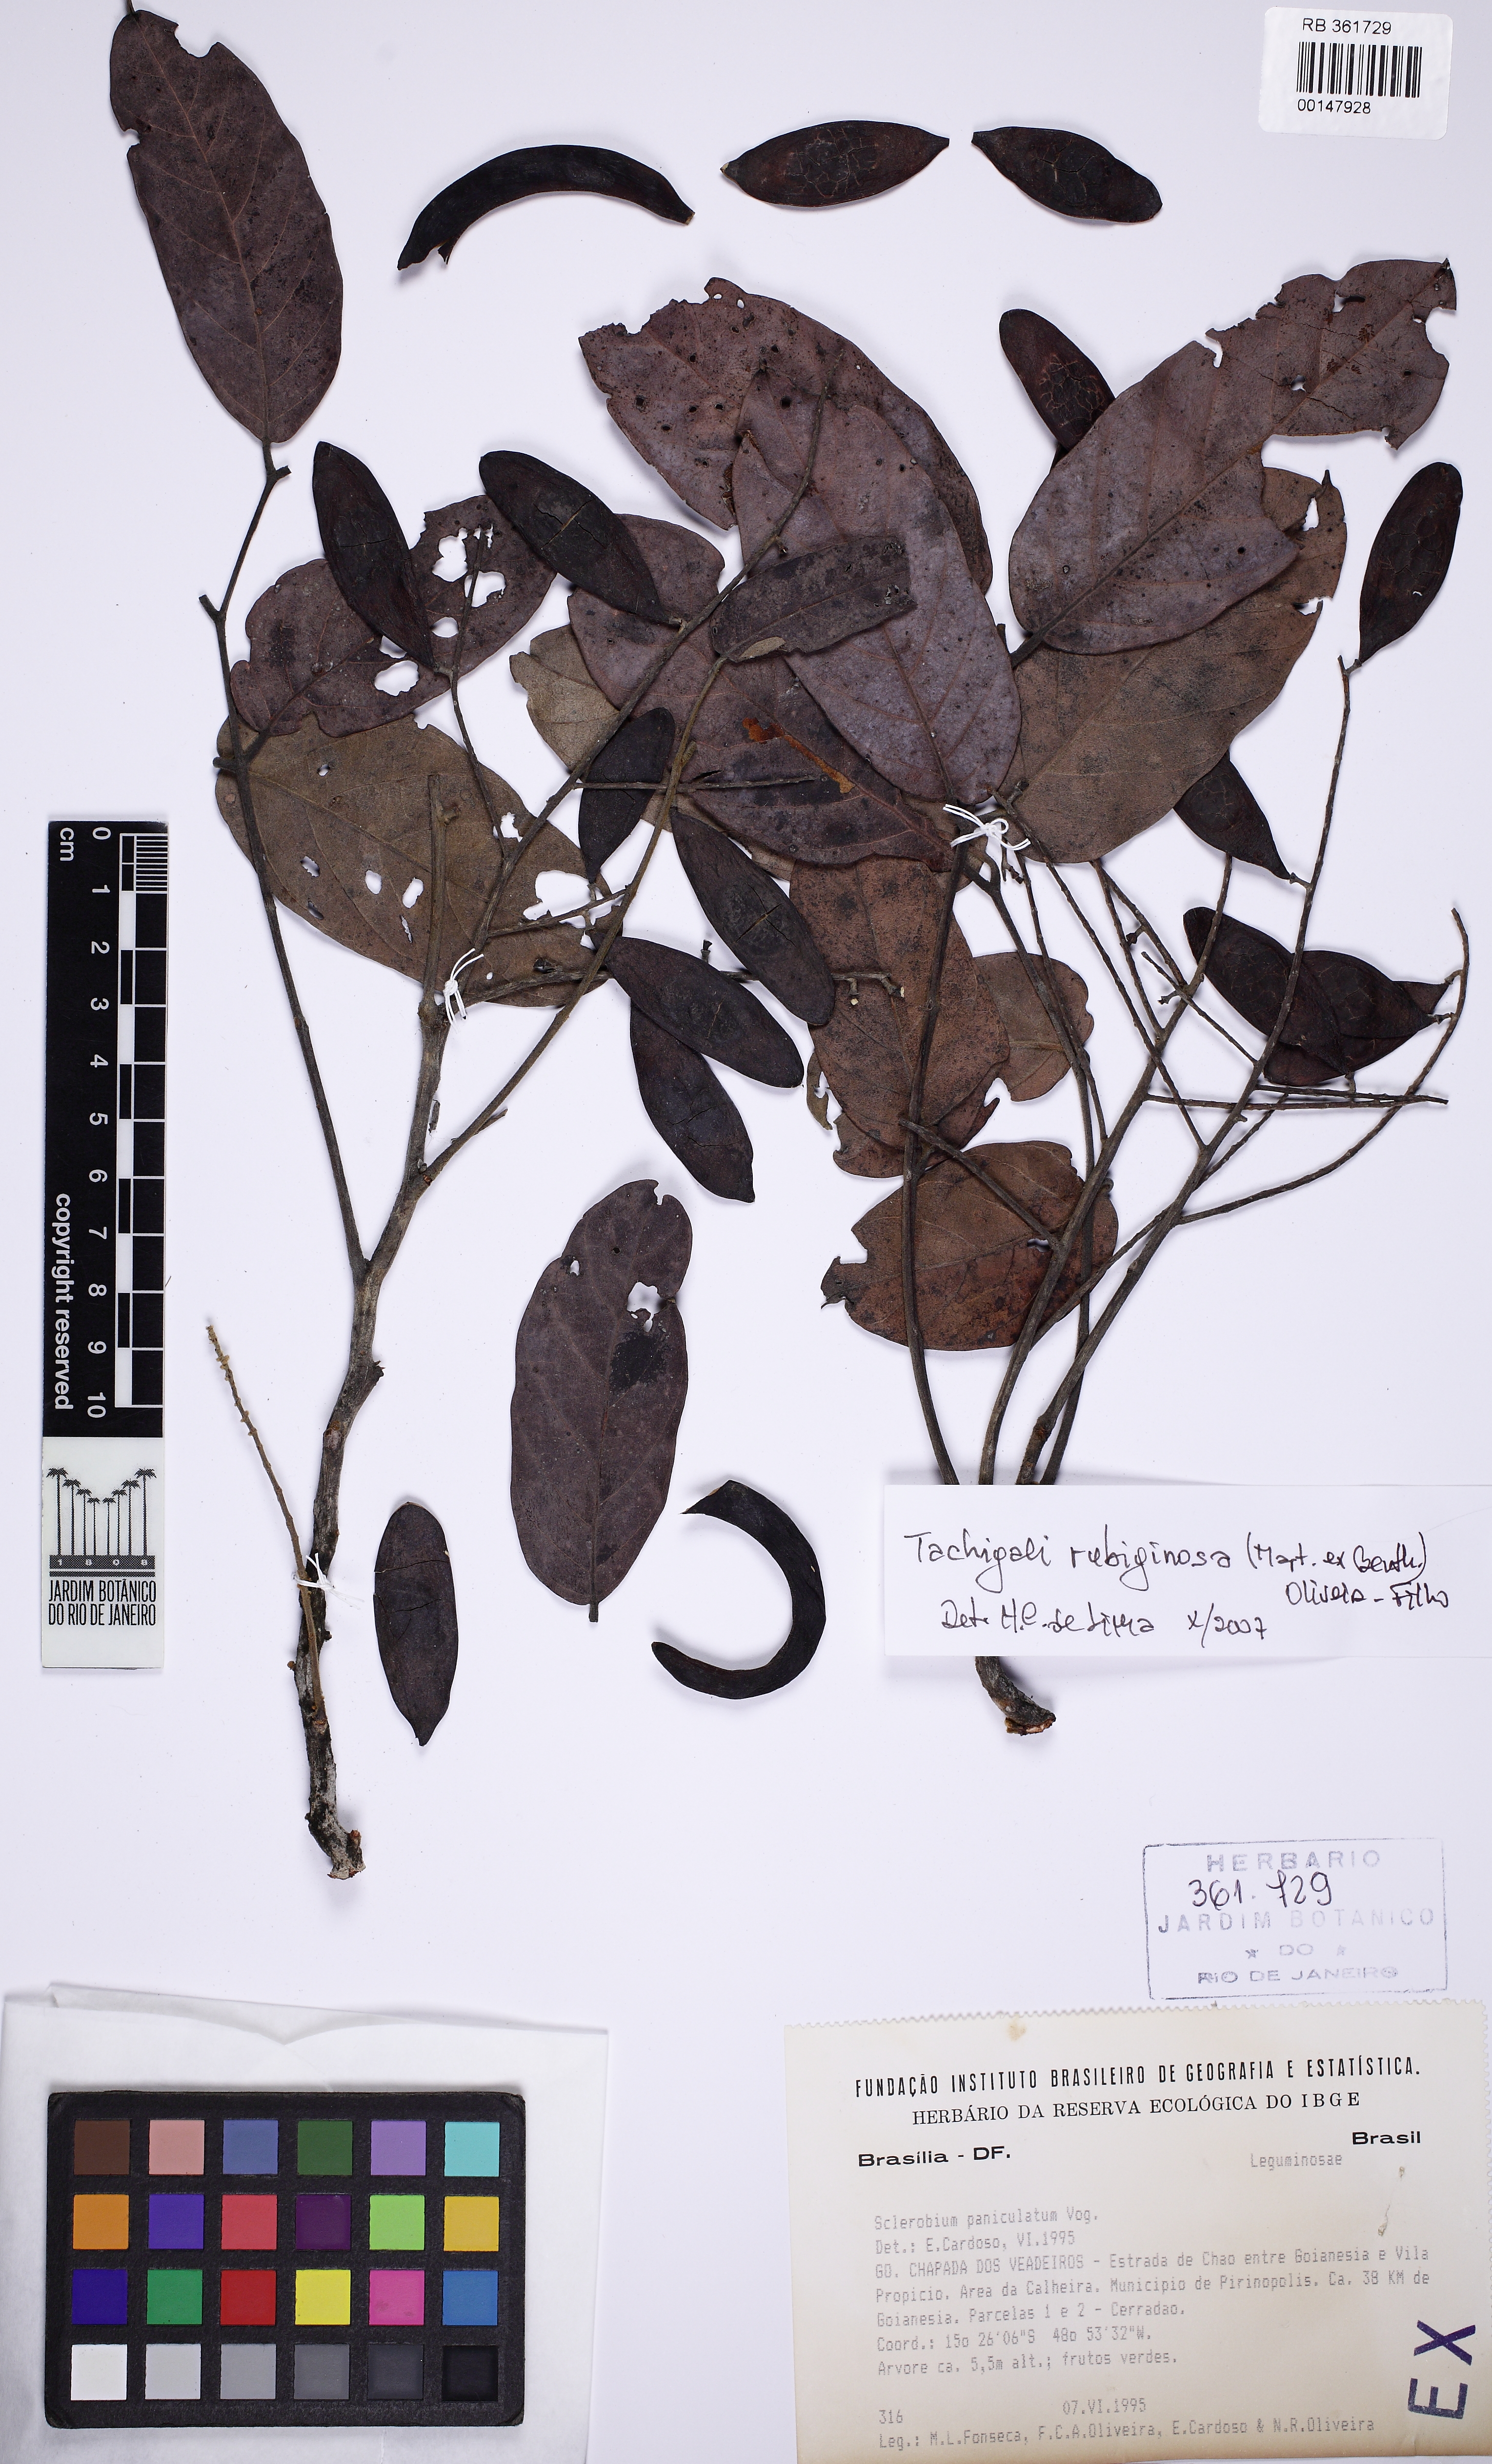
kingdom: Plantae
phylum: Tracheophyta
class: Magnoliopsida
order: Fabales
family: Fabaceae
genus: Tachigali
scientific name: Tachigali rubiginosa
